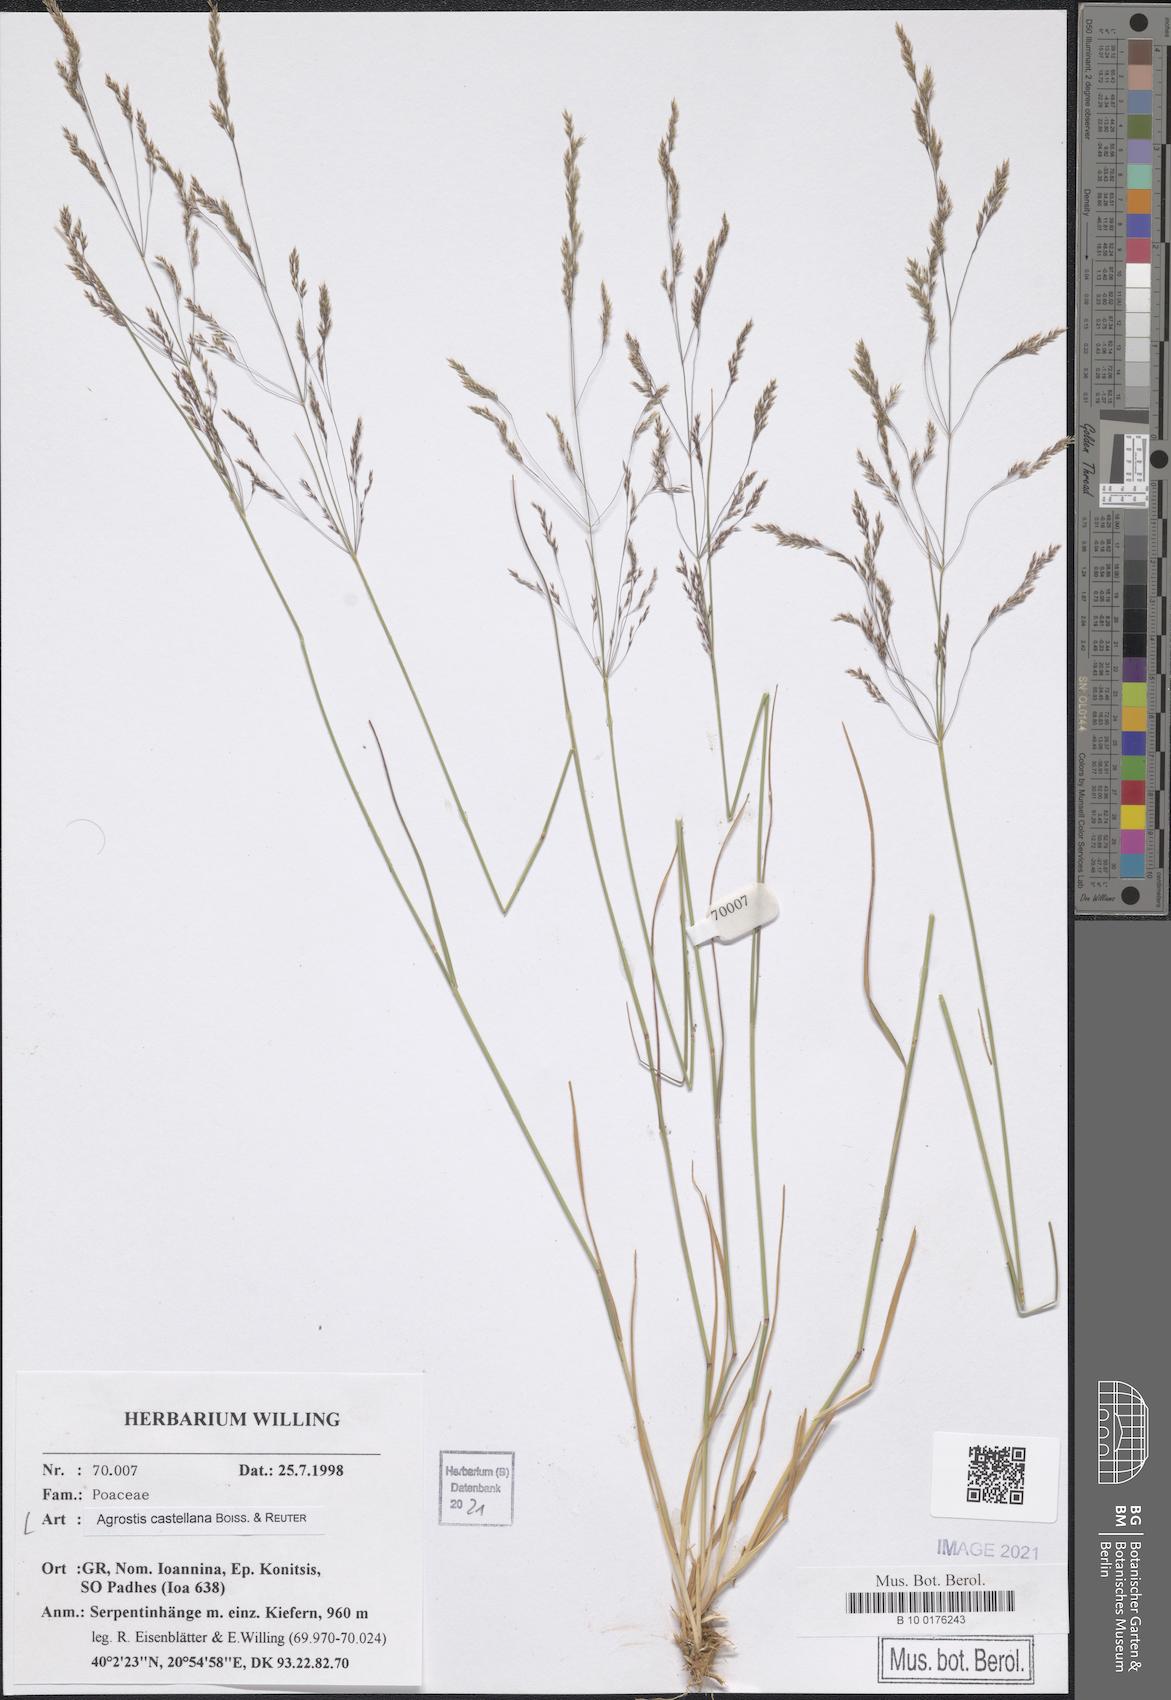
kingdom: Plantae
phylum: Tracheophyta
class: Liliopsida
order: Poales
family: Poaceae
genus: Agrostis
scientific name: Agrostis castellana
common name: Highland bent
